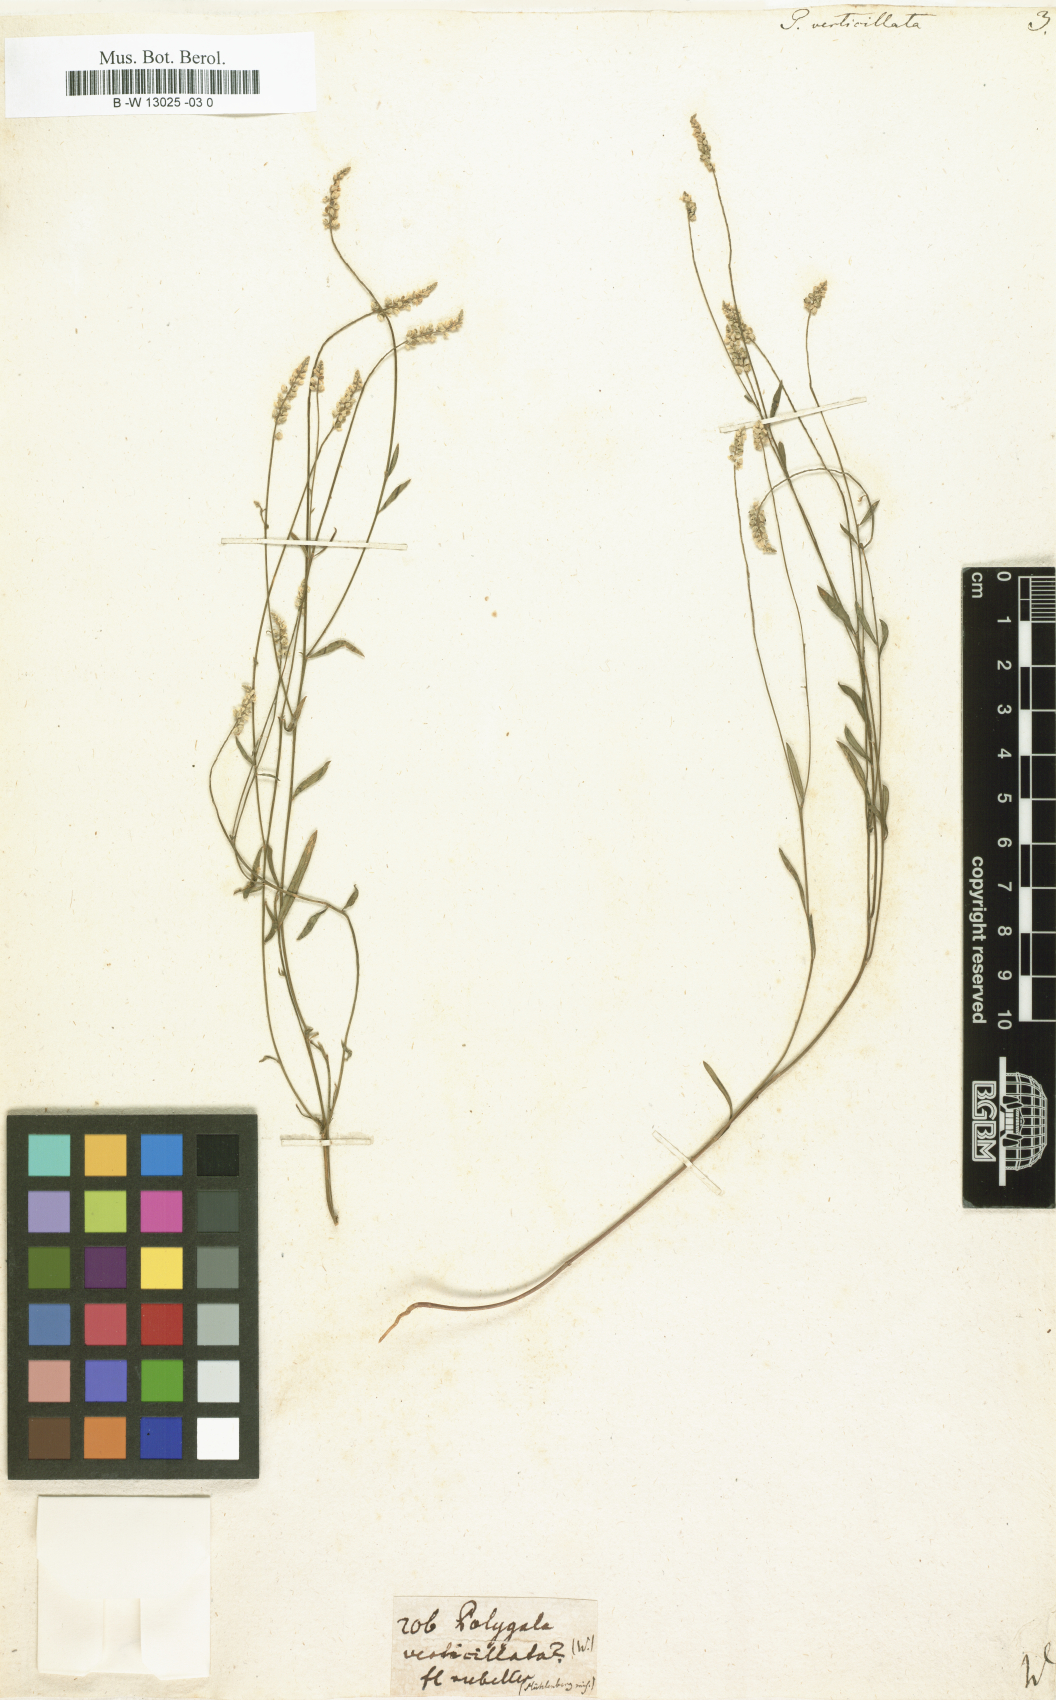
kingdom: Plantae
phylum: Tracheophyta
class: Magnoliopsida
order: Fabales
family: Polygalaceae
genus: Polygala
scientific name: Polygala verticillata
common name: Whorl milkwort
